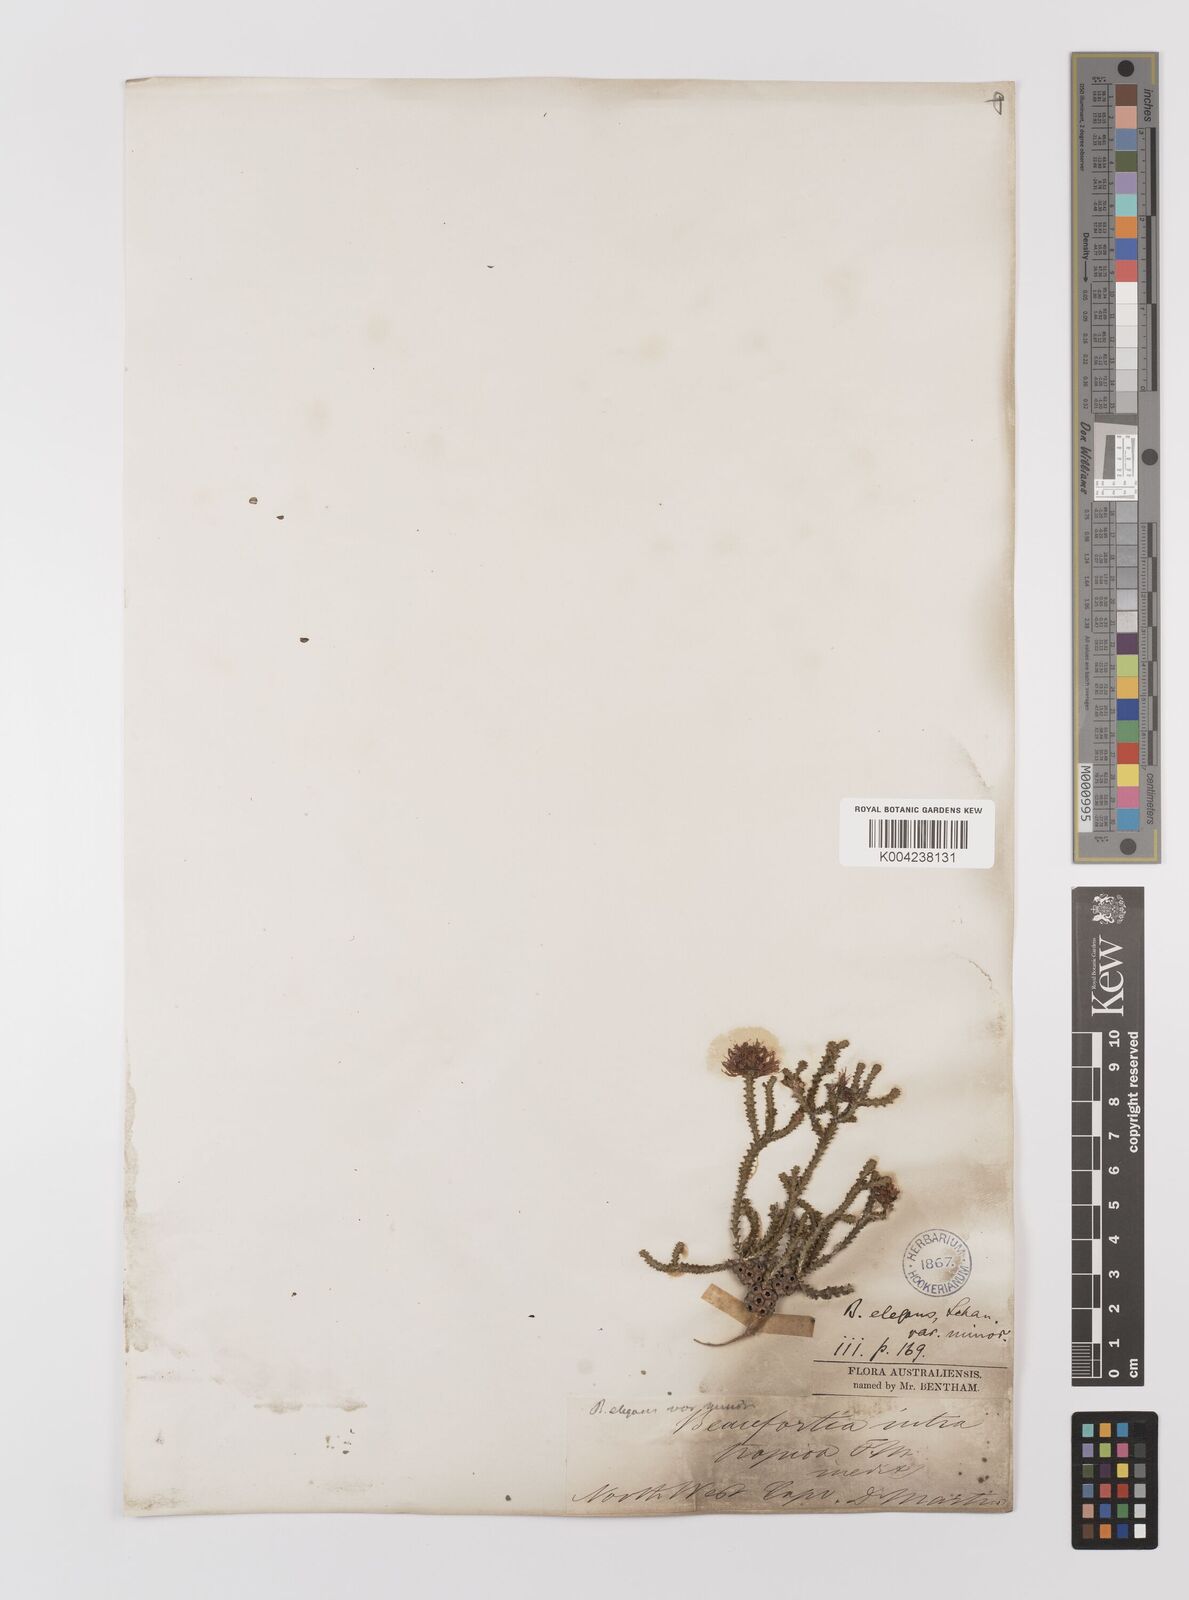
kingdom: Plantae
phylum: Tracheophyta
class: Magnoliopsida
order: Myrtales
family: Myrtaceae
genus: Melaleuca
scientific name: Melaleuca scitula
